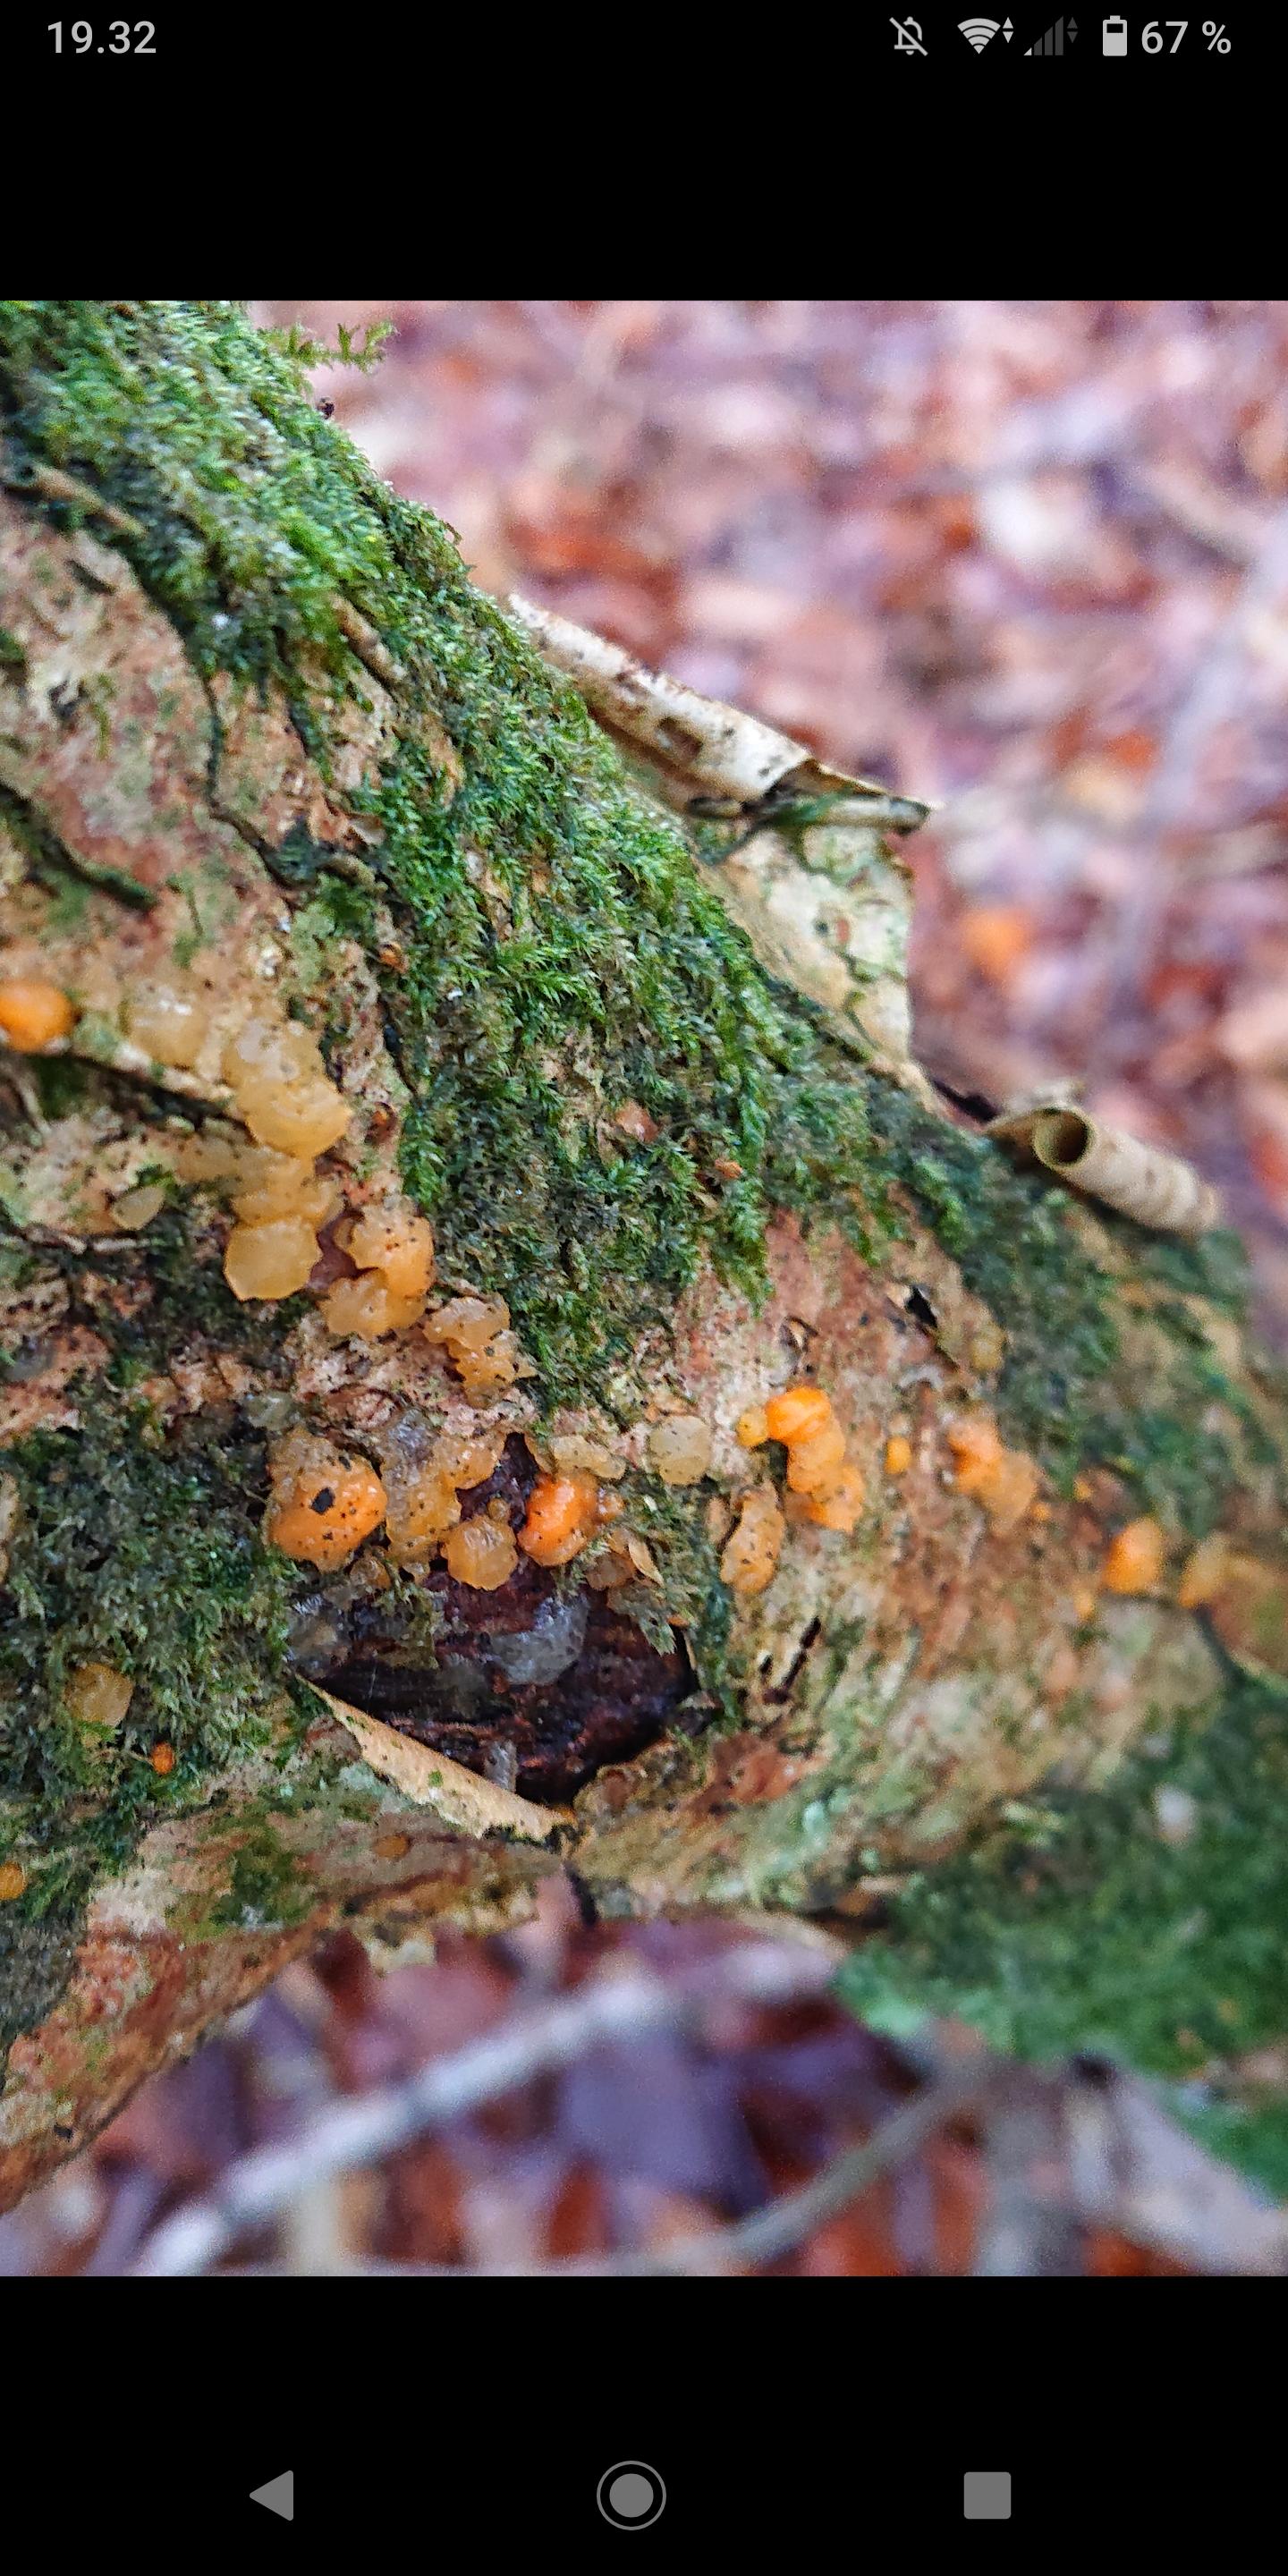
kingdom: Fungi
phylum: Basidiomycota
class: Dacrymycetes
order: Dacrymycetales
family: Dacrymycetaceae
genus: Dacrymyces
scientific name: Dacrymyces stillatus
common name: almindelig tåresvamp
